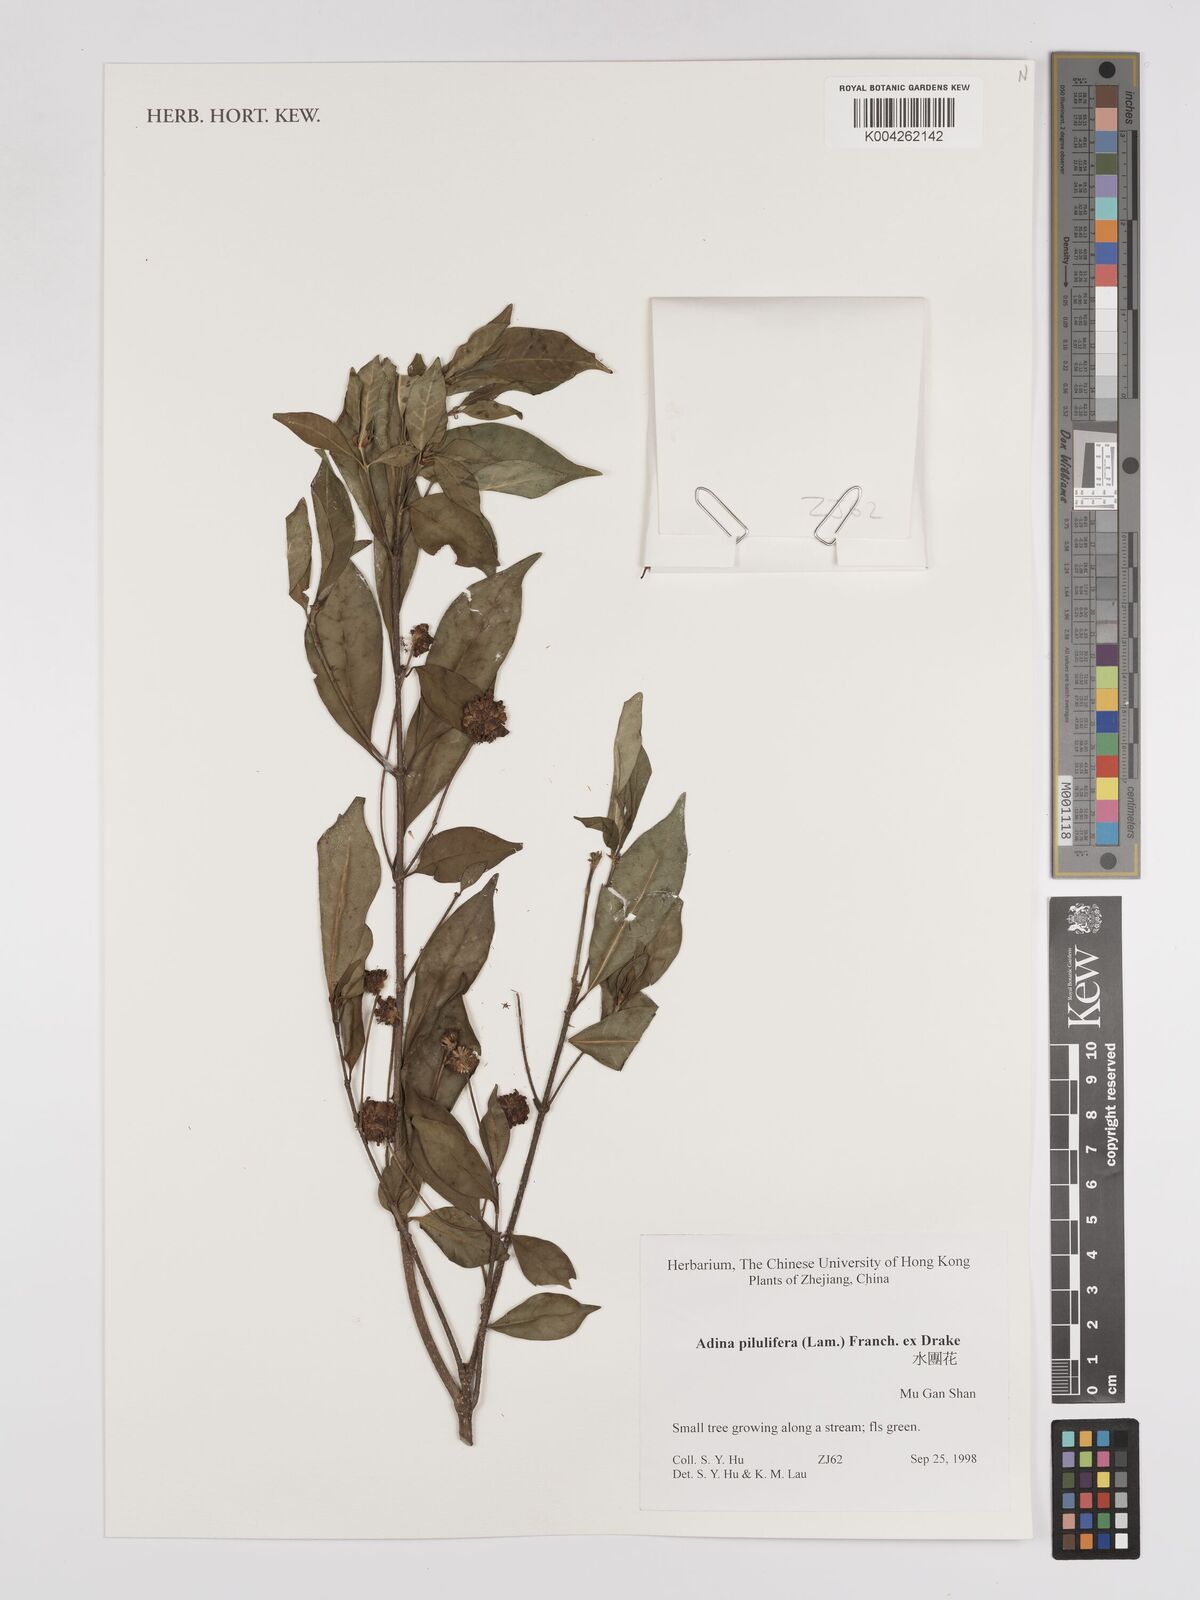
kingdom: Plantae
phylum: Tracheophyta
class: Magnoliopsida
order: Gentianales
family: Rubiaceae
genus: Adina
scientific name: Adina pilulifera
